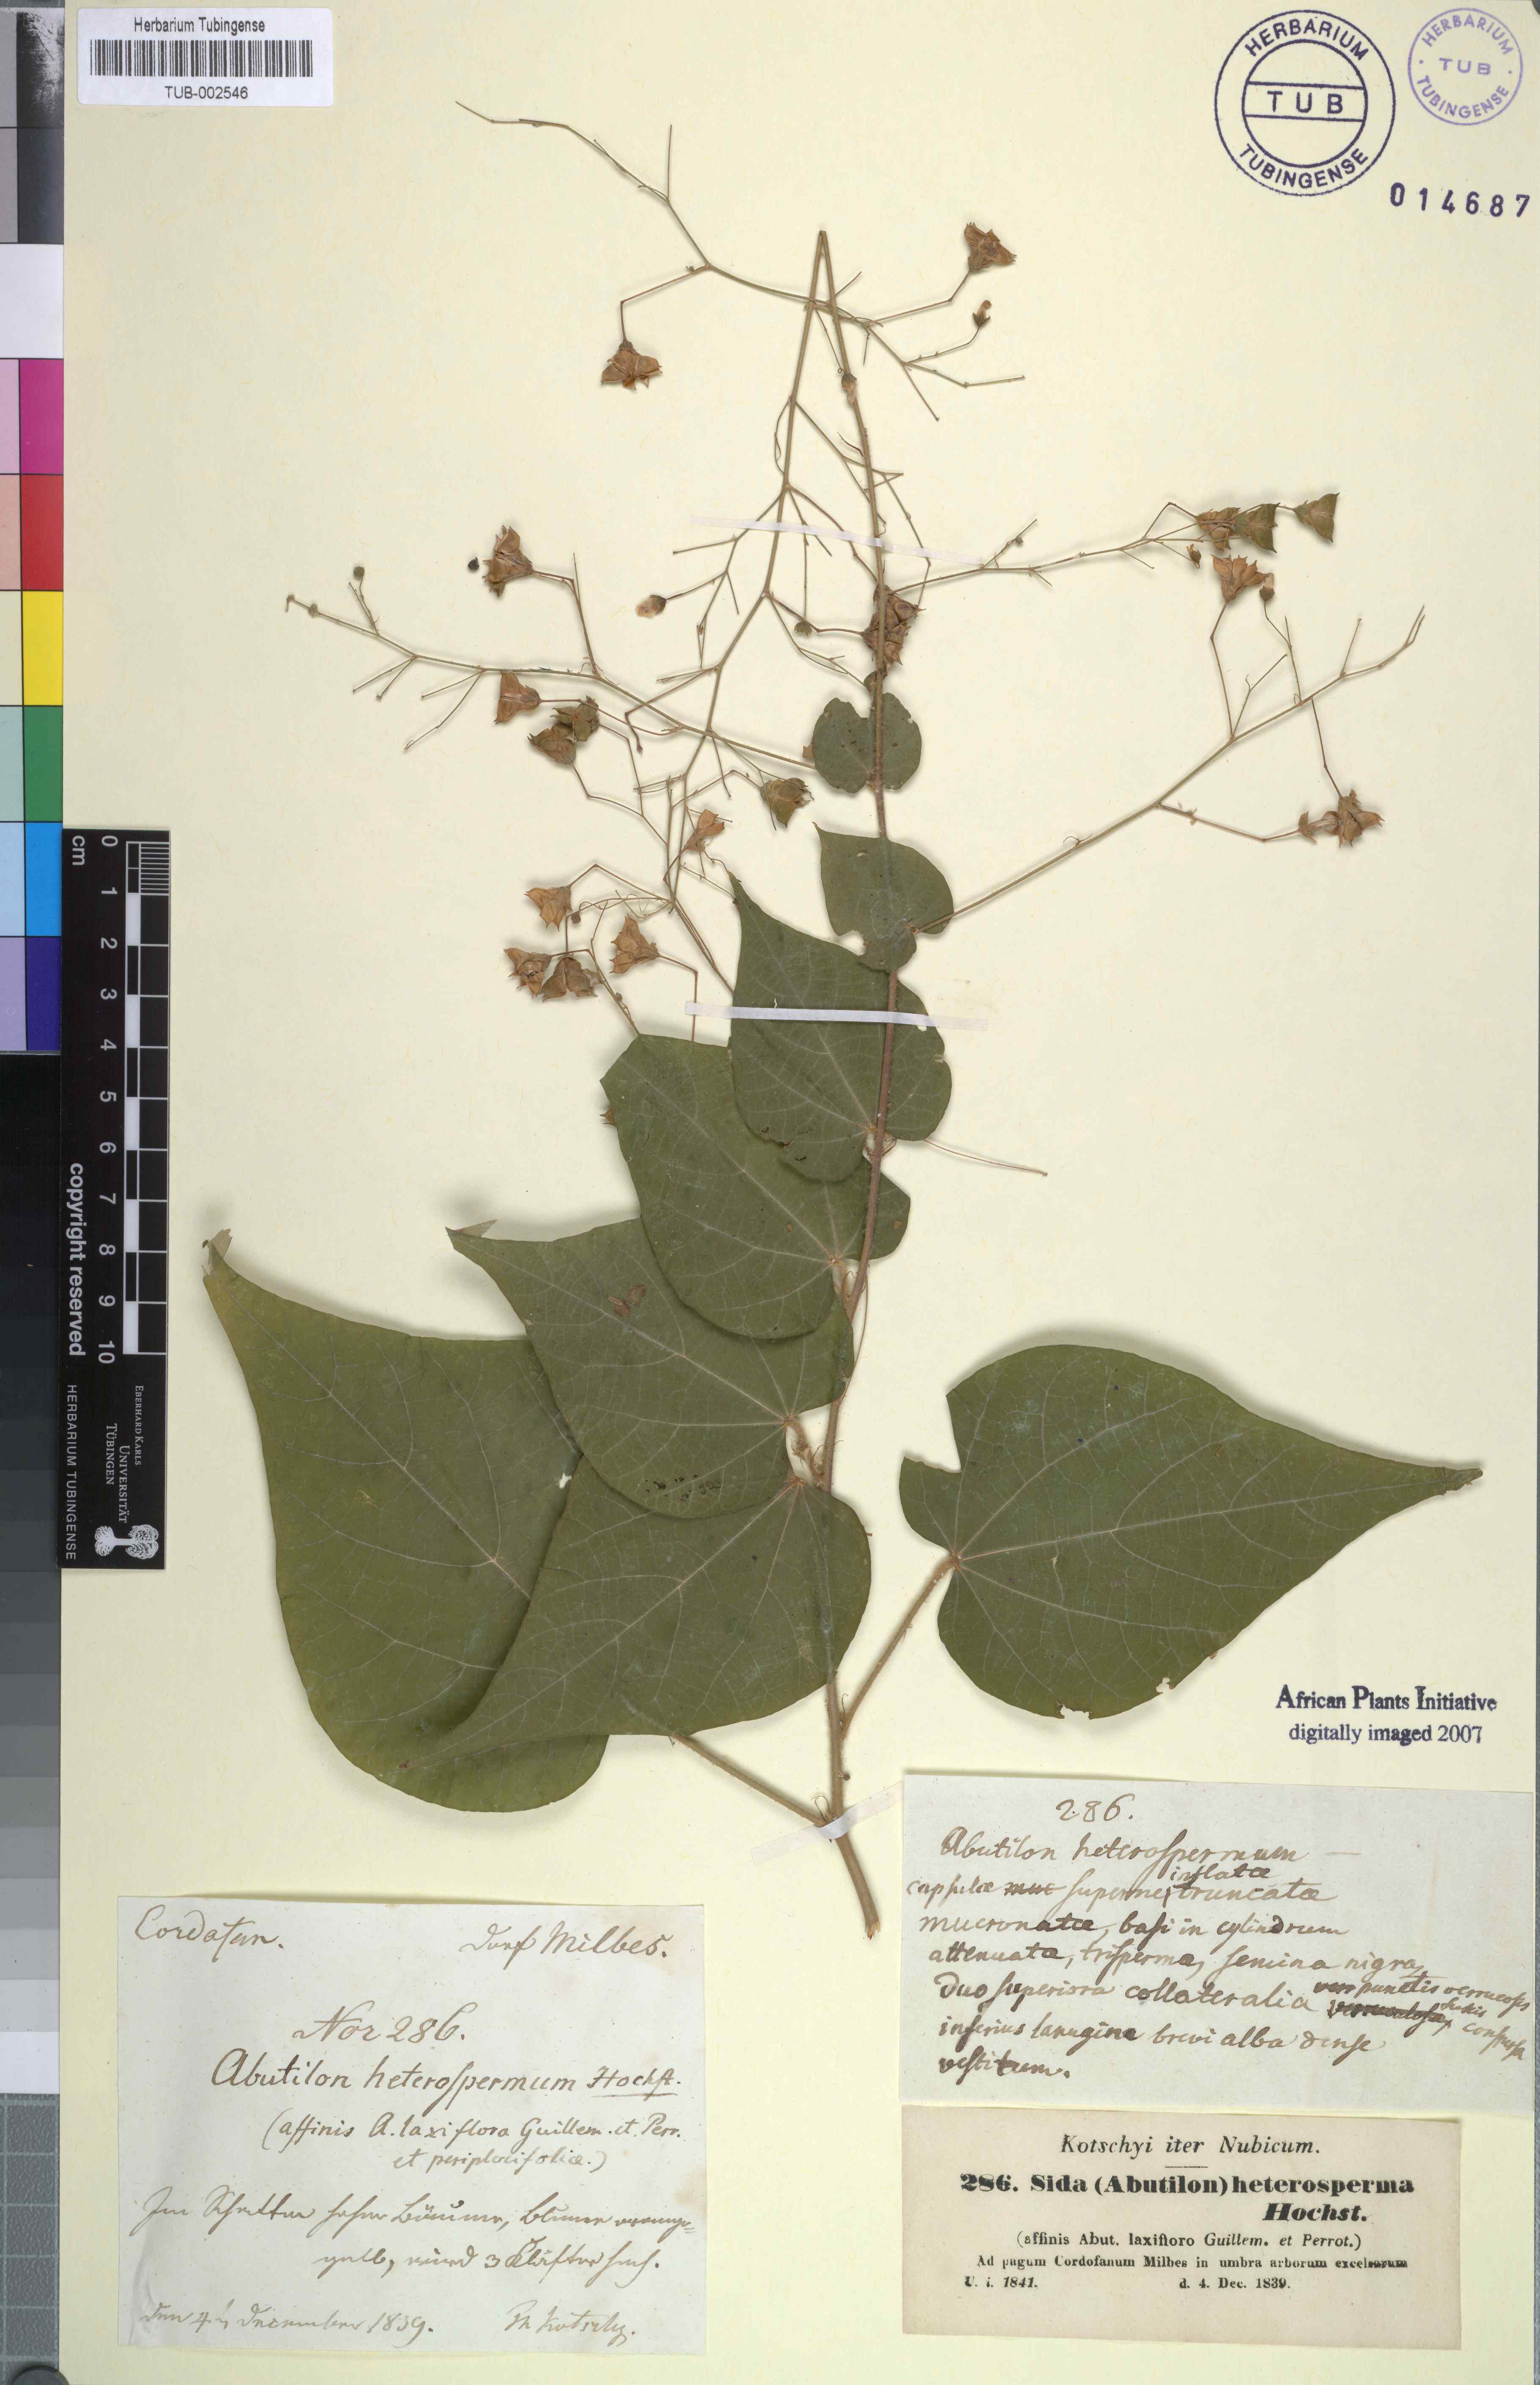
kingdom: Plantae
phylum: Tracheophyta
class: Magnoliopsida
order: Malvales
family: Malvaceae
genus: Wissadula
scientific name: Wissadula periplocifolia
